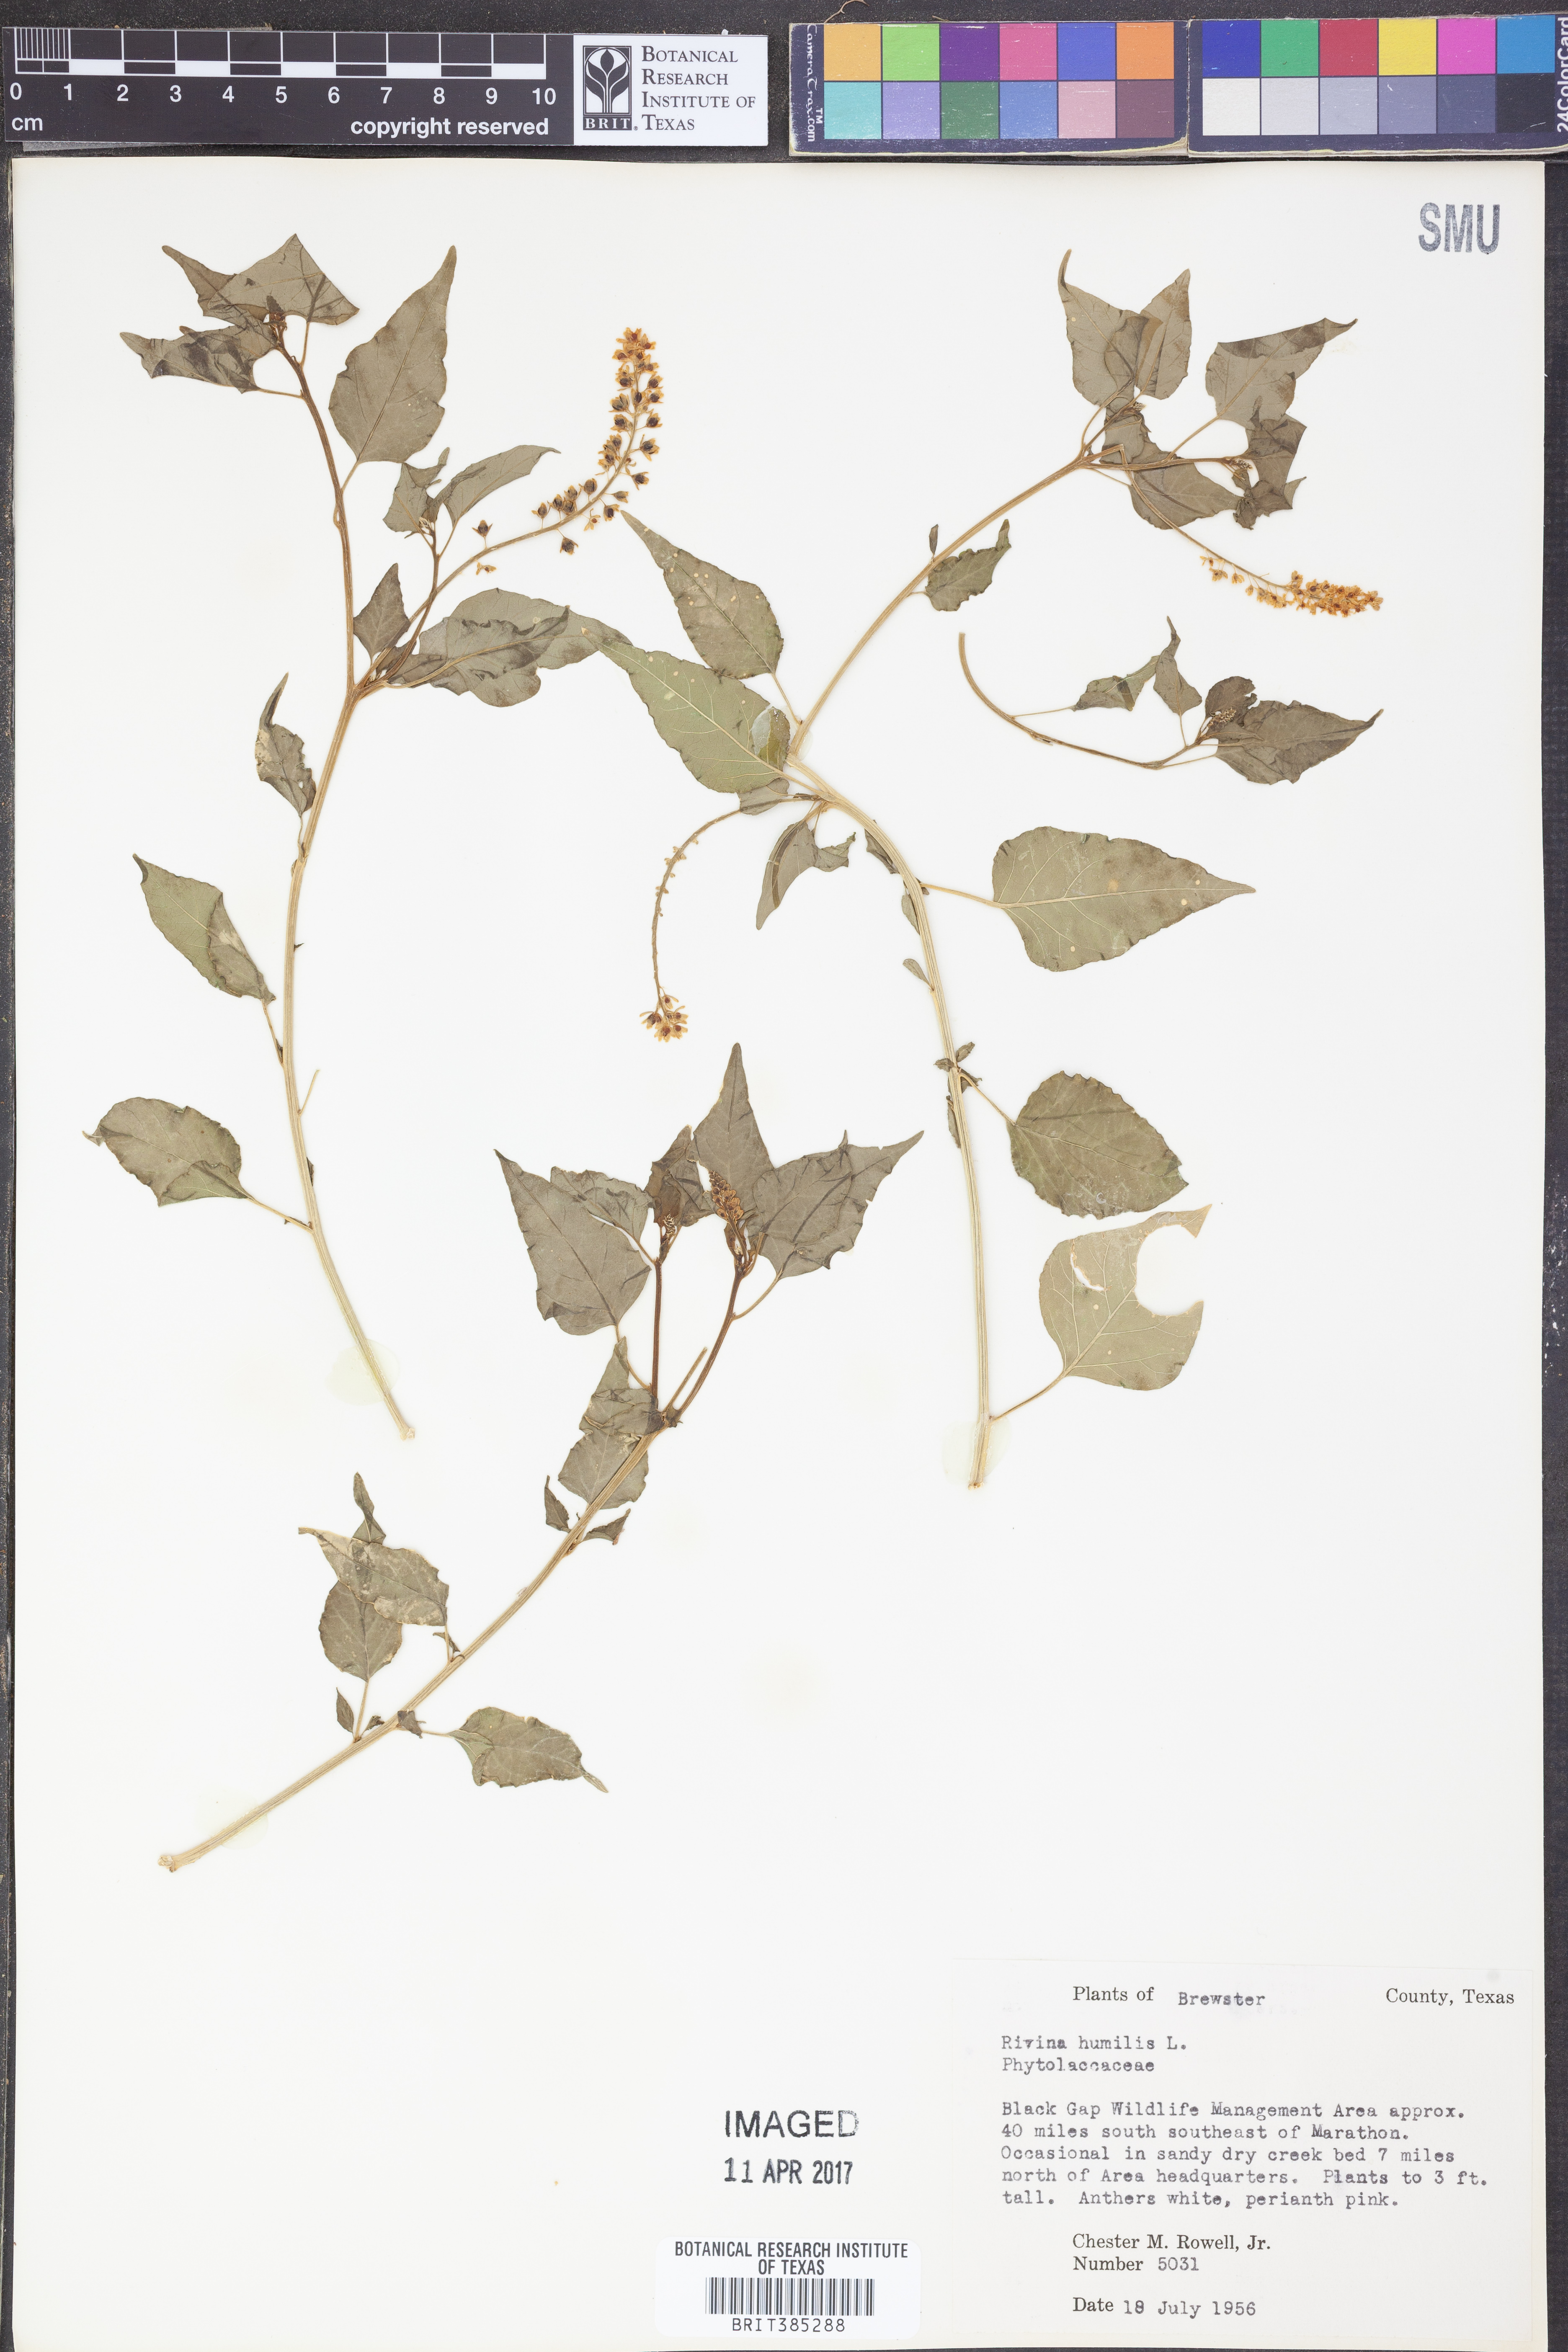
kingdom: Plantae
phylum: Tracheophyta
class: Magnoliopsida
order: Caryophyllales
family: Phytolaccaceae
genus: Rivina
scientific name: Rivina humilis
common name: Rougeplant
